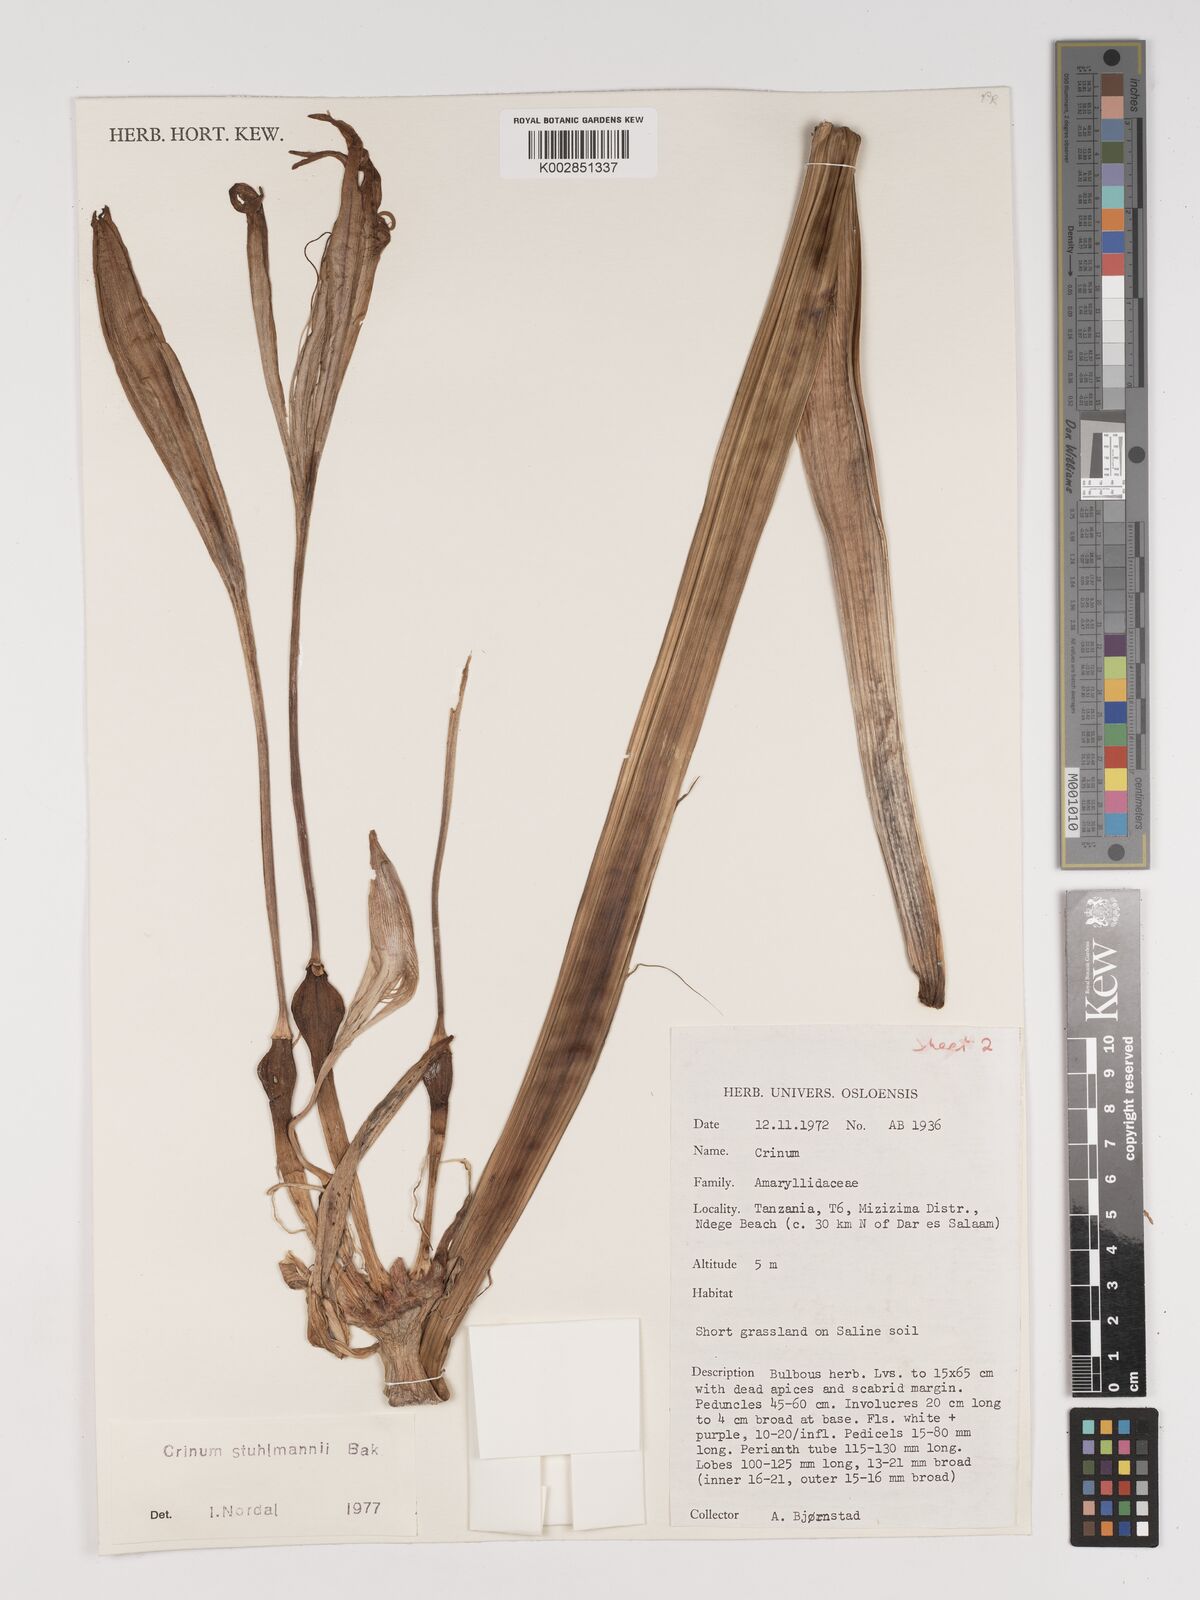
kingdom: Plantae
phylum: Tracheophyta
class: Liliopsida
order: Asparagales
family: Amaryllidaceae
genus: Crinum
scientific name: Crinum stuhlmannii
